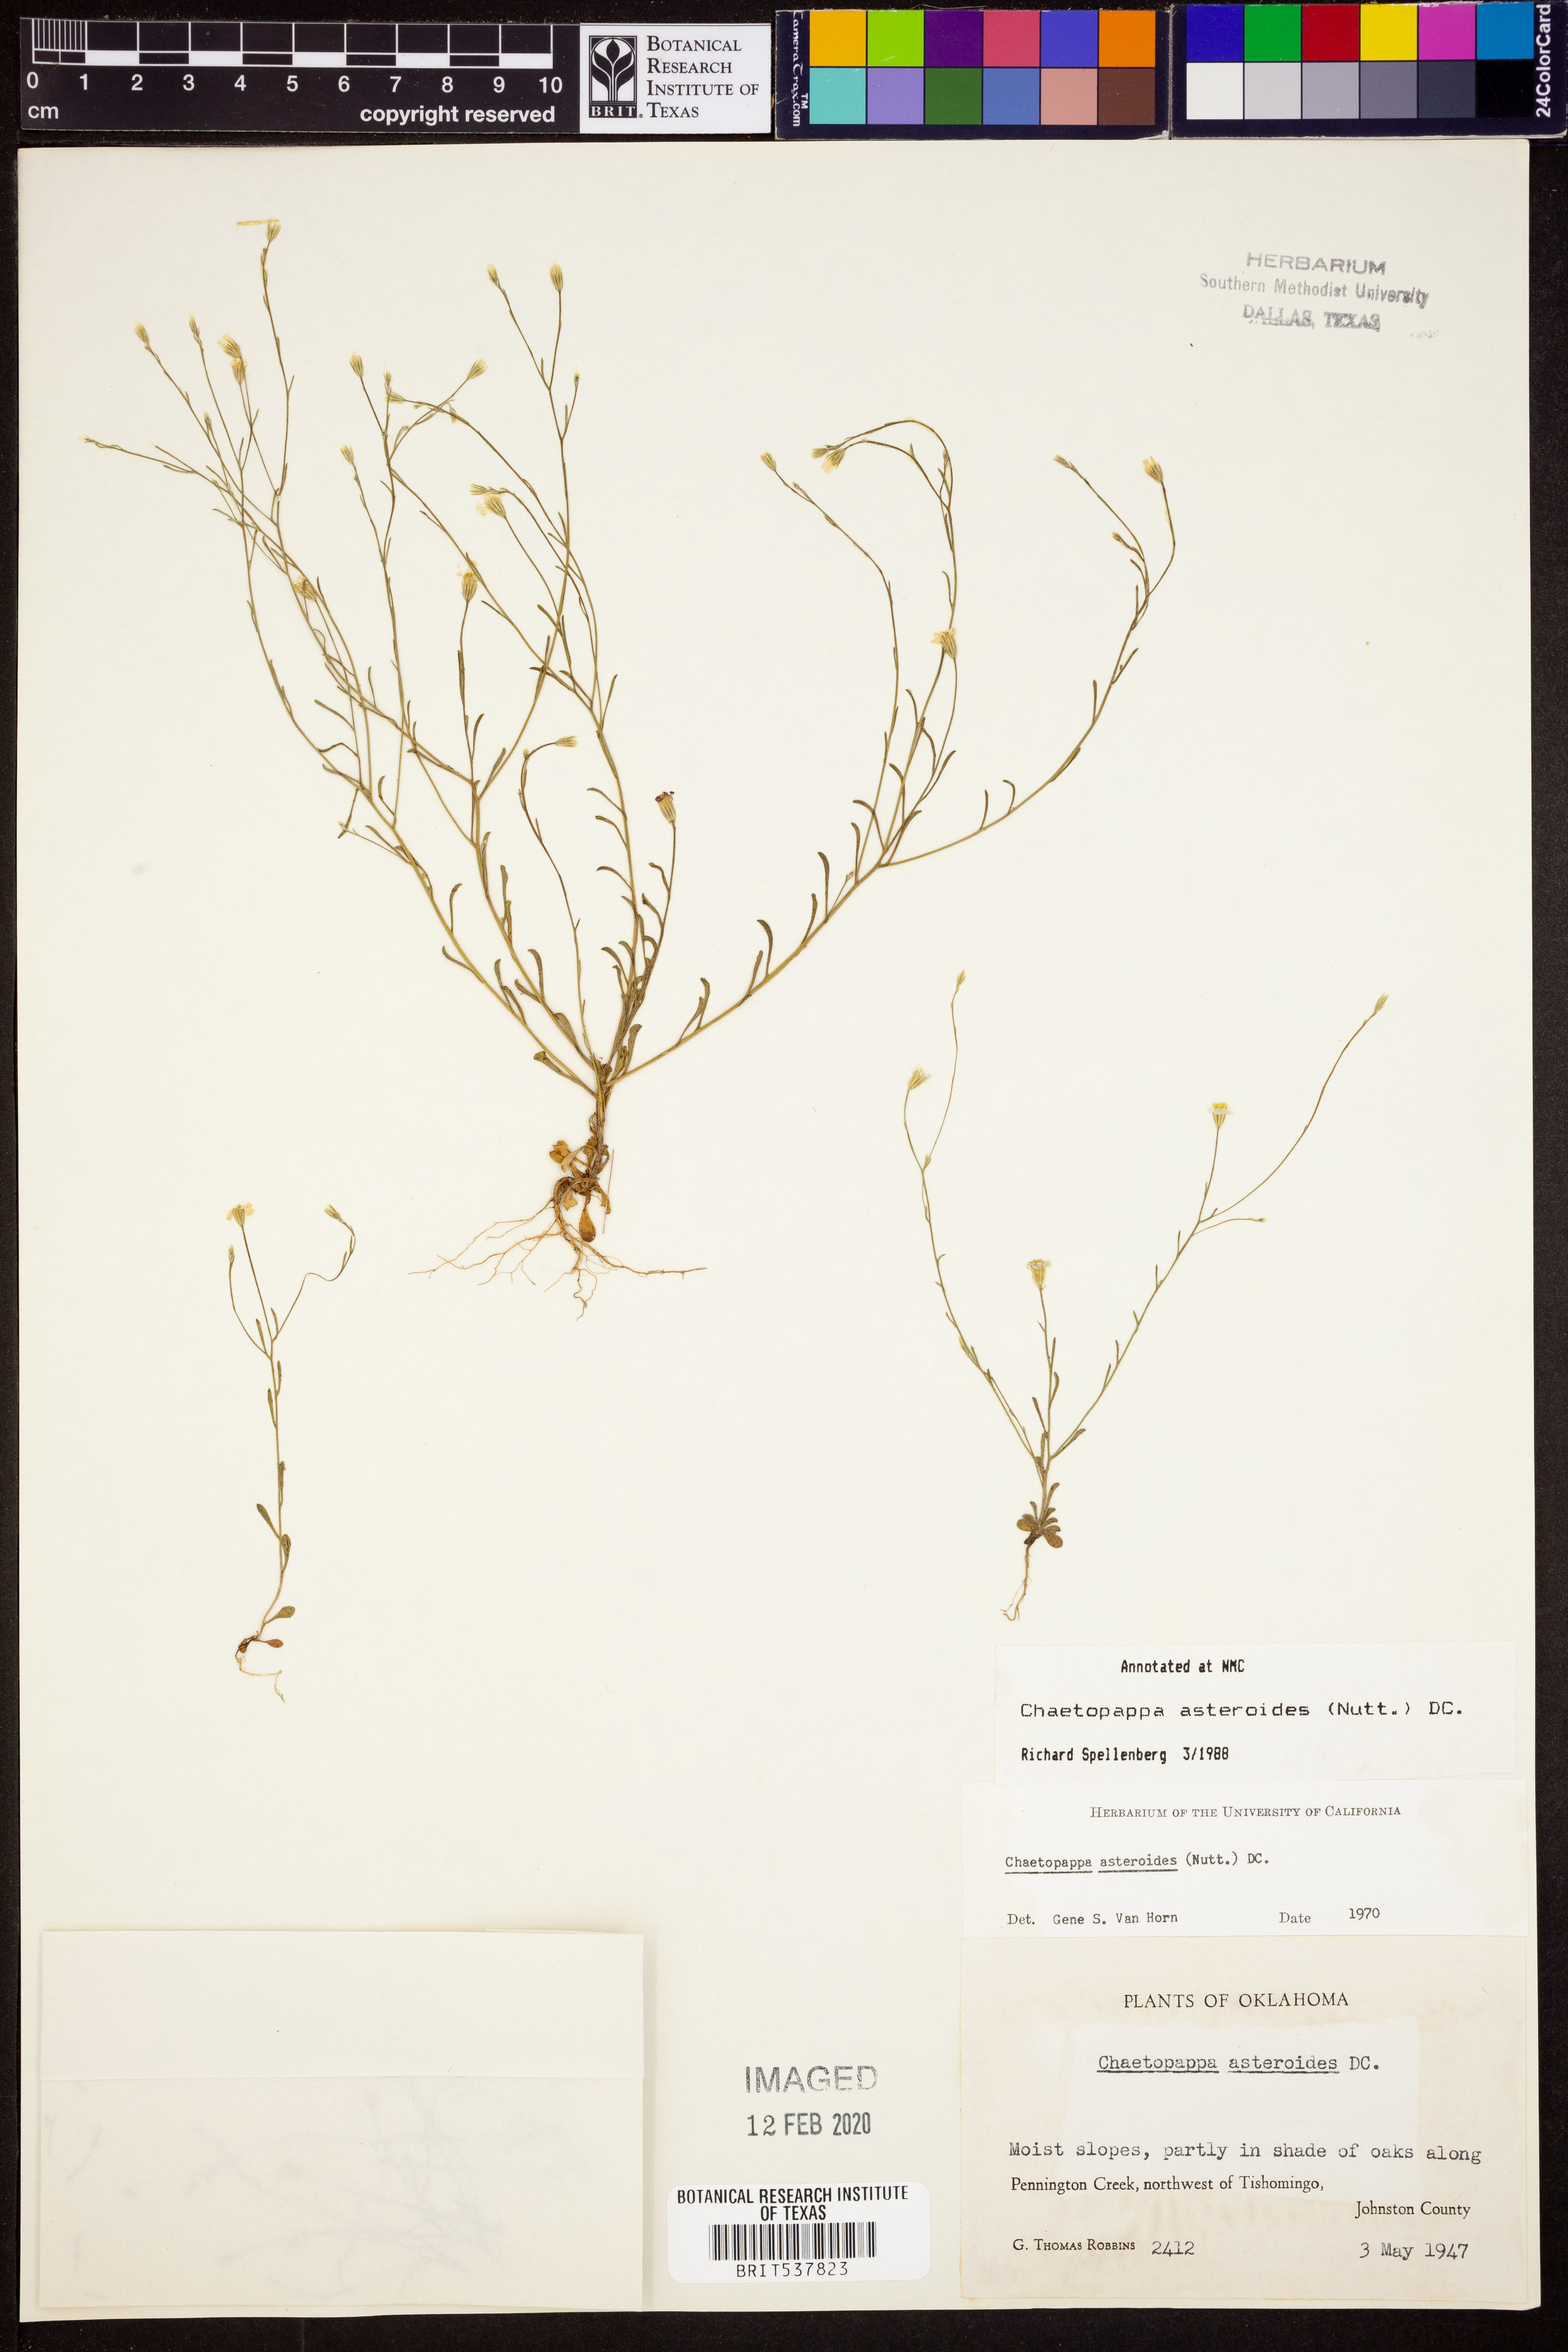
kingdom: Plantae
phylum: Tracheophyta
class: Magnoliopsida
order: Asterales
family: Asteraceae
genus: Chaetopappa
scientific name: Chaetopappa asteroides
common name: Tiny lazy daisy
